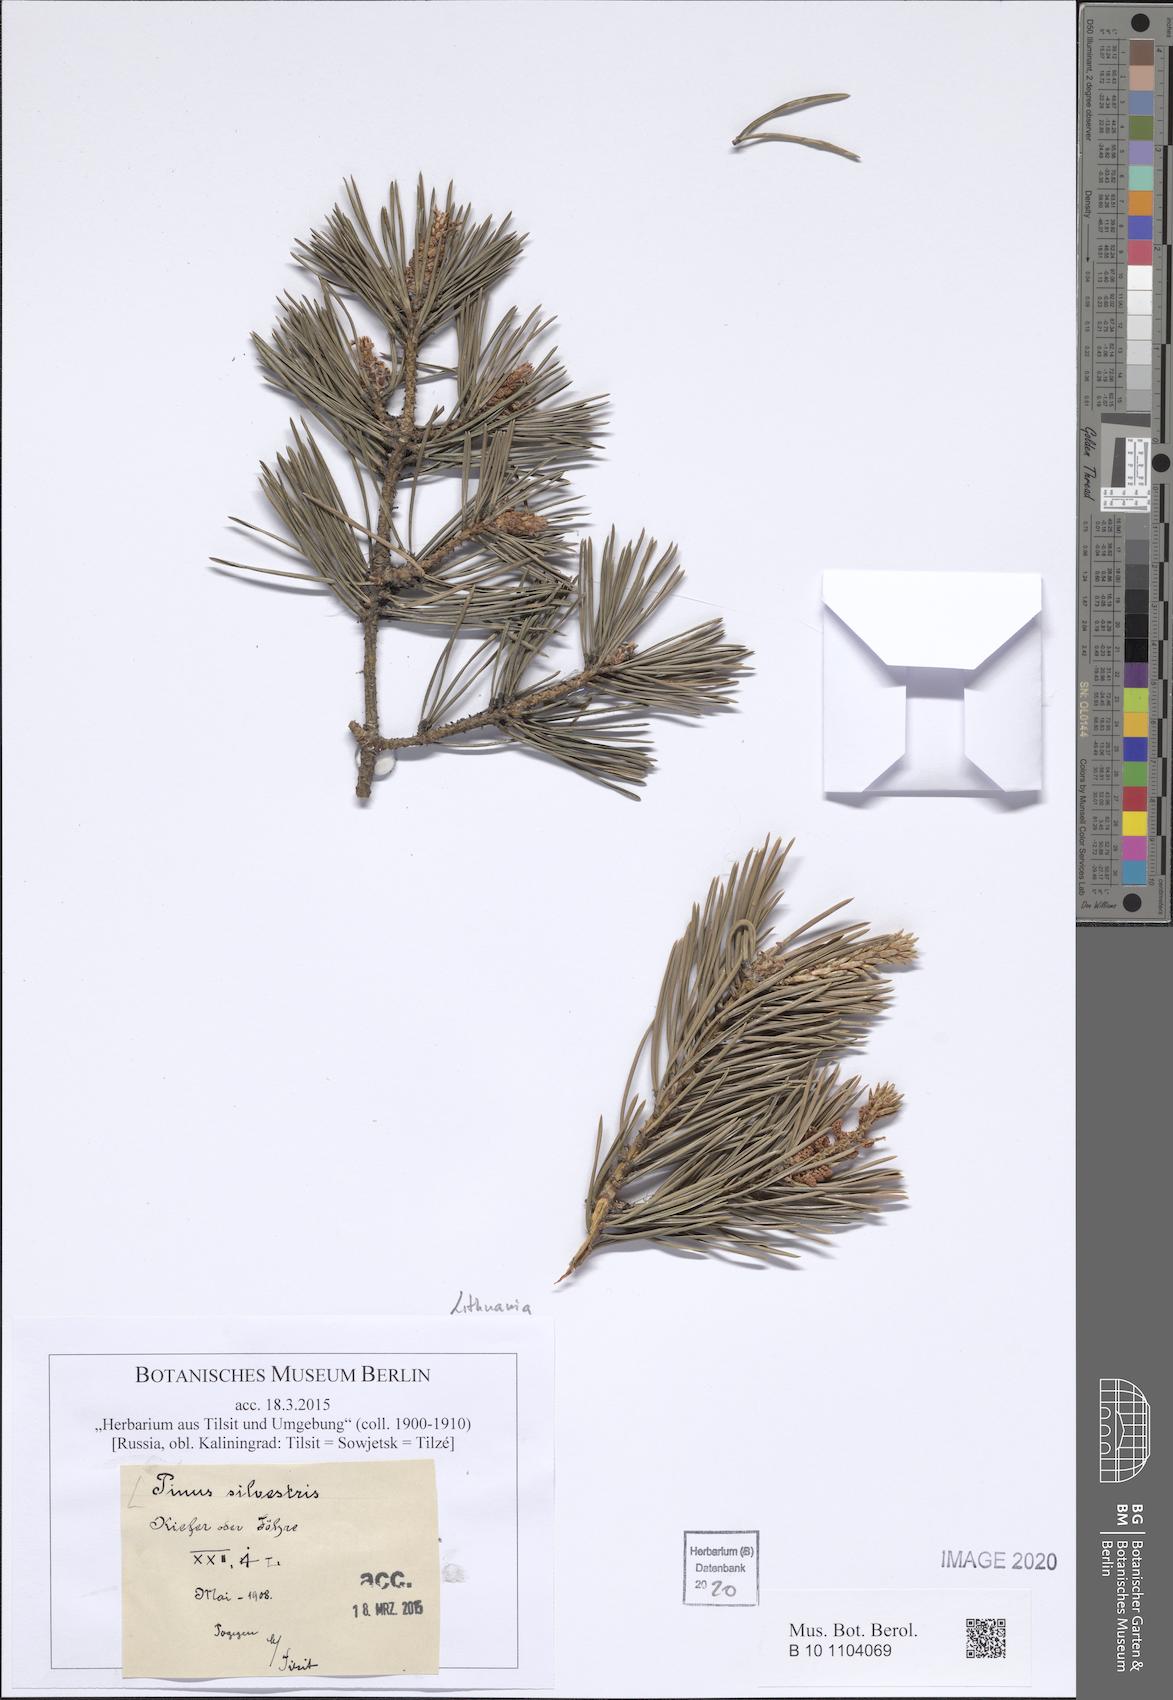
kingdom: Plantae
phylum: Tracheophyta
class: Pinopsida
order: Pinales
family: Pinaceae
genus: Pinus
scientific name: Pinus sylvestris
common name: Scots pine
